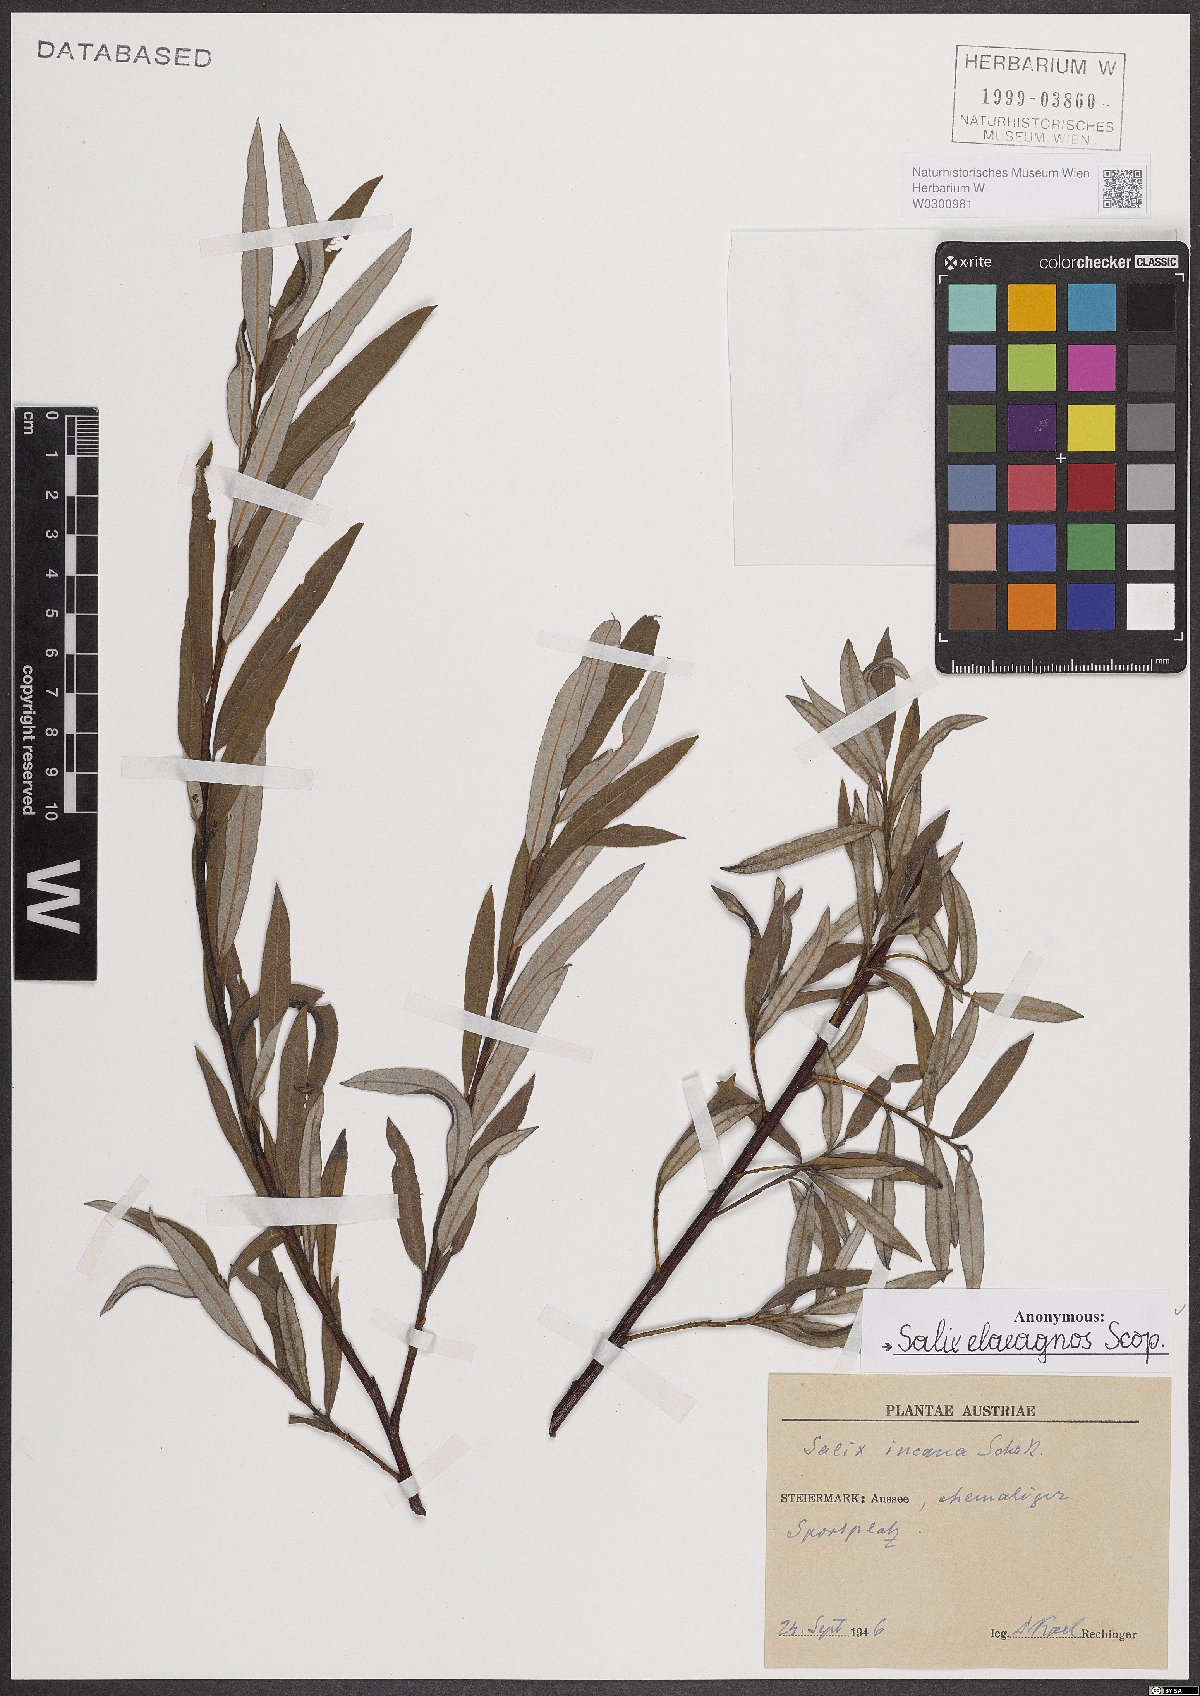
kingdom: Plantae
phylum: Tracheophyta
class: Magnoliopsida
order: Malpighiales
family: Salicaceae
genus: Salix
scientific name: Salix eleagnos
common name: Elaeagnus willow
